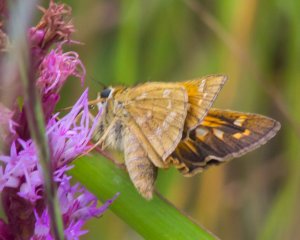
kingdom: Animalia
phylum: Arthropoda
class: Insecta
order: Lepidoptera
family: Hesperiidae
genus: Atalopedes
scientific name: Atalopedes campestris
